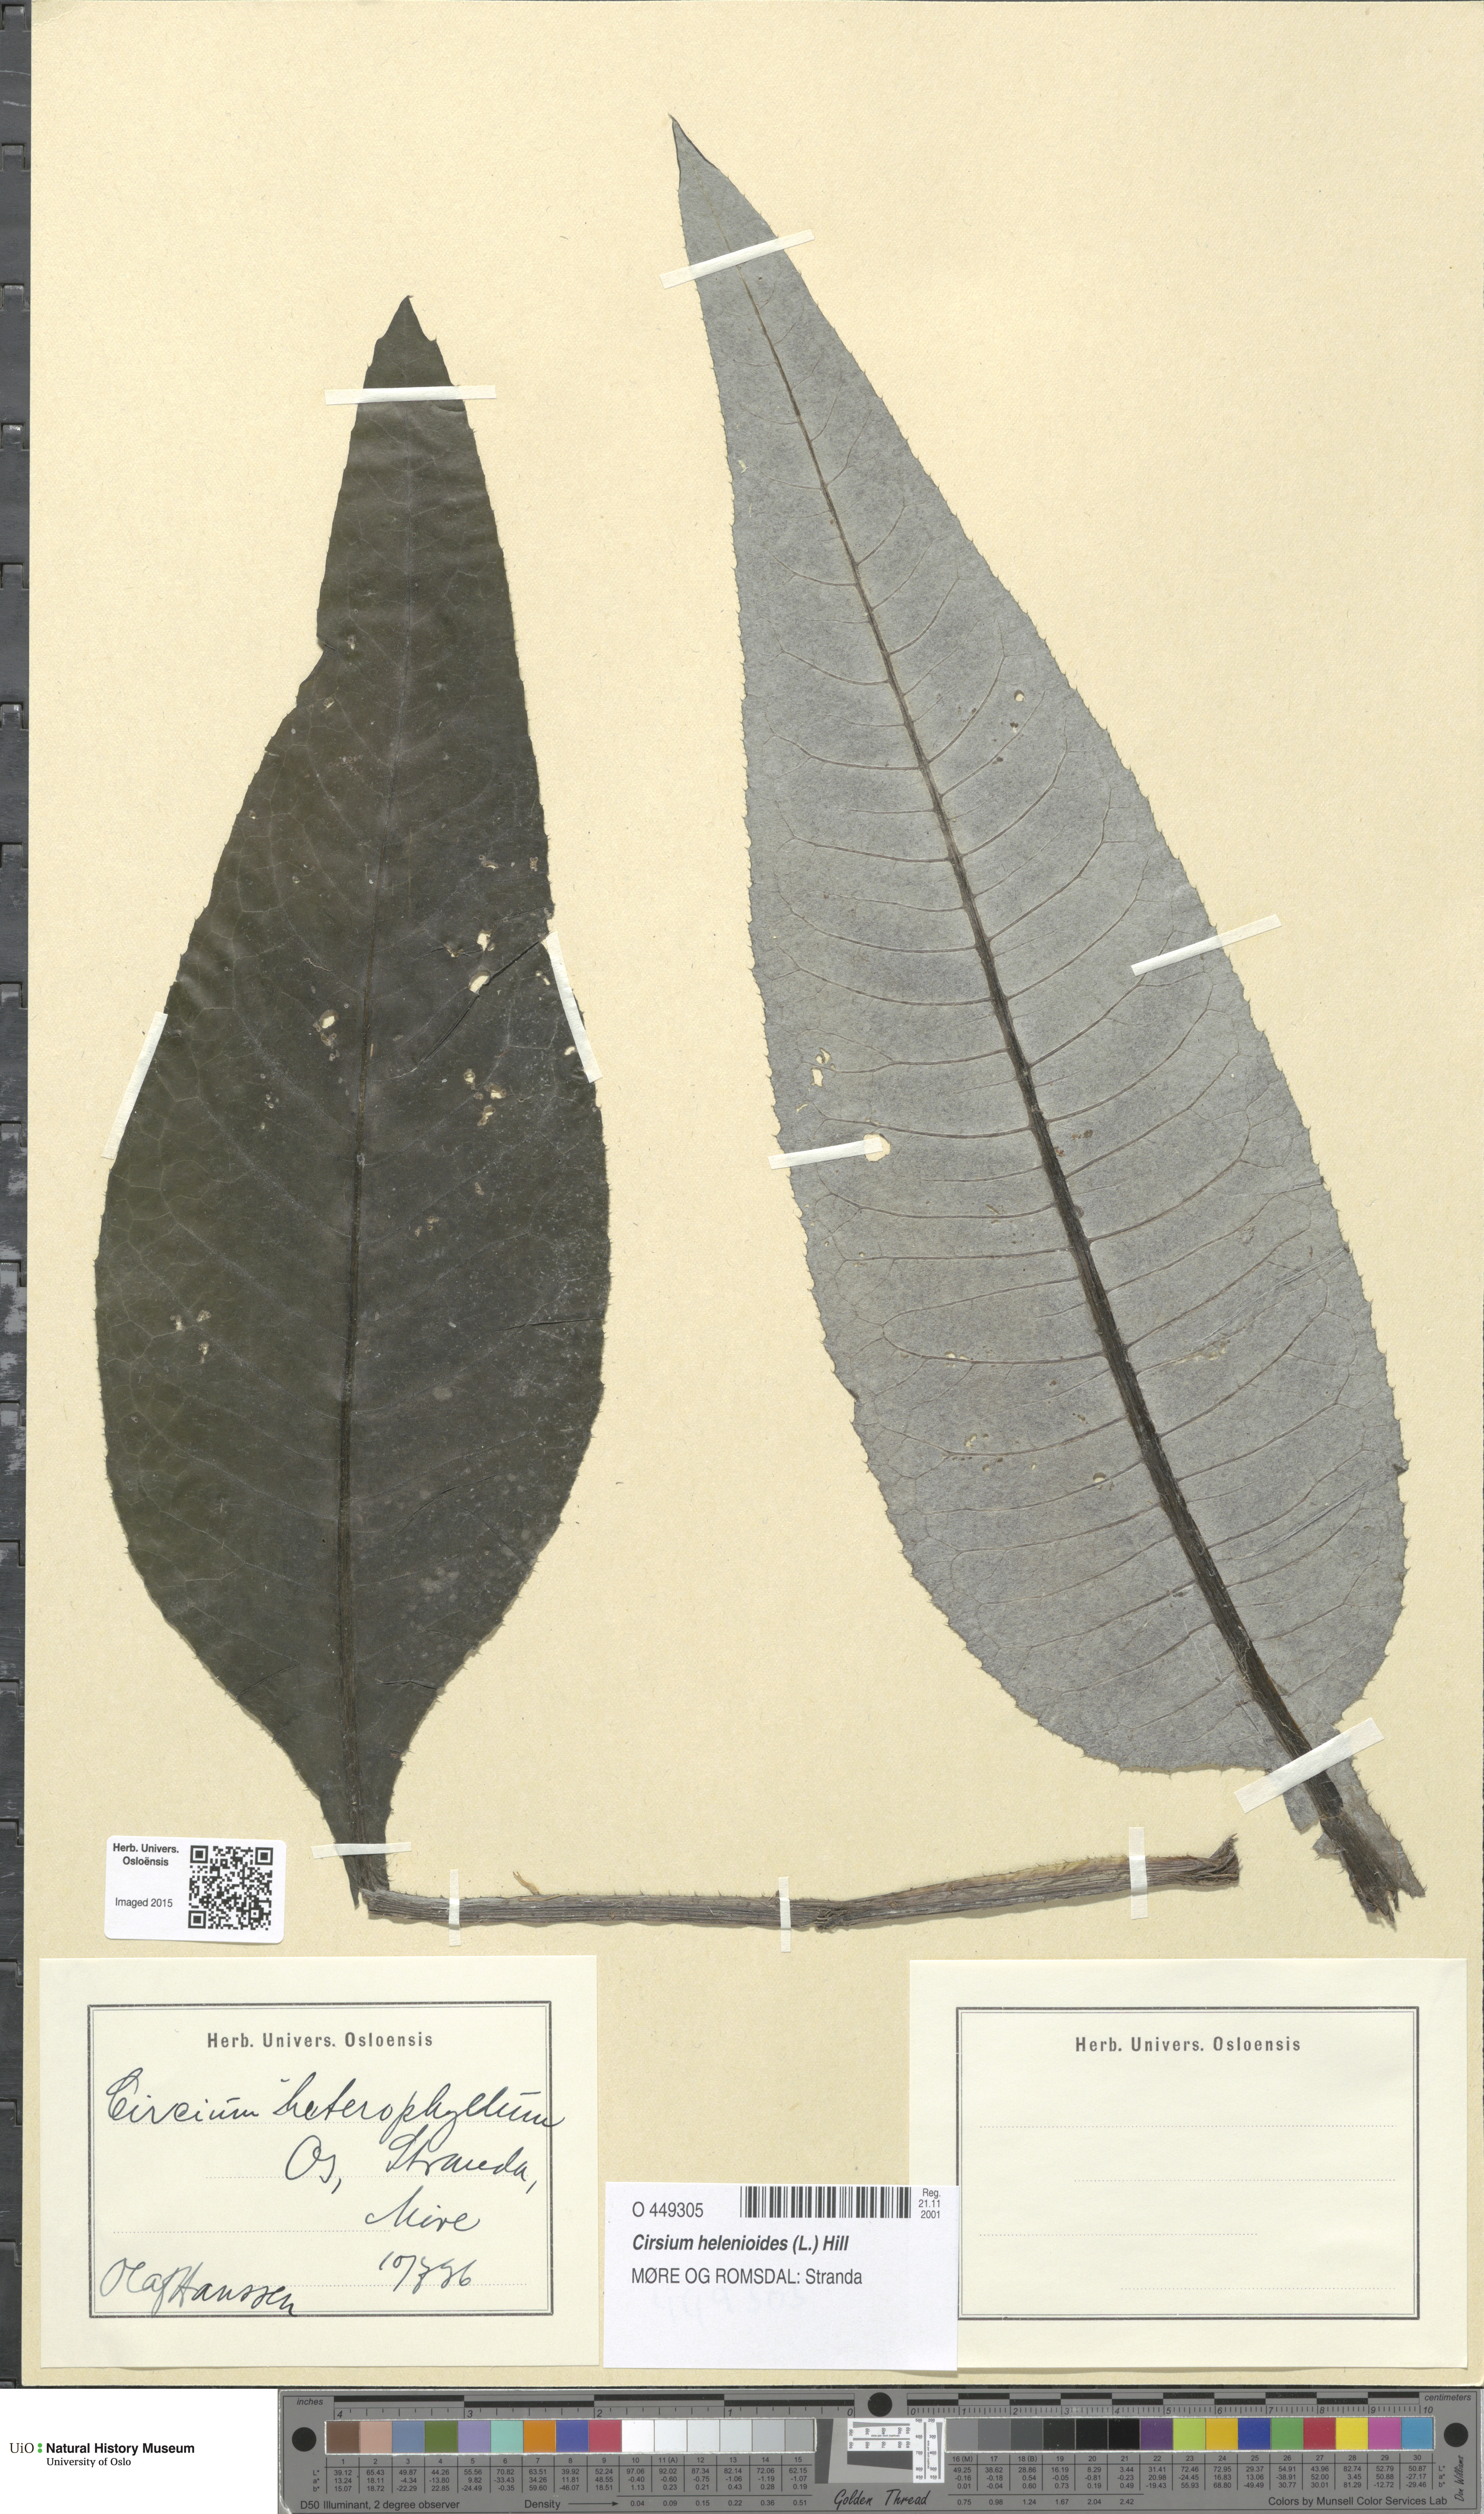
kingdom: Plantae
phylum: Tracheophyta
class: Magnoliopsida
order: Asterales
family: Asteraceae
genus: Cirsium
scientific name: Cirsium heterophyllum
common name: Melancholy thistle
